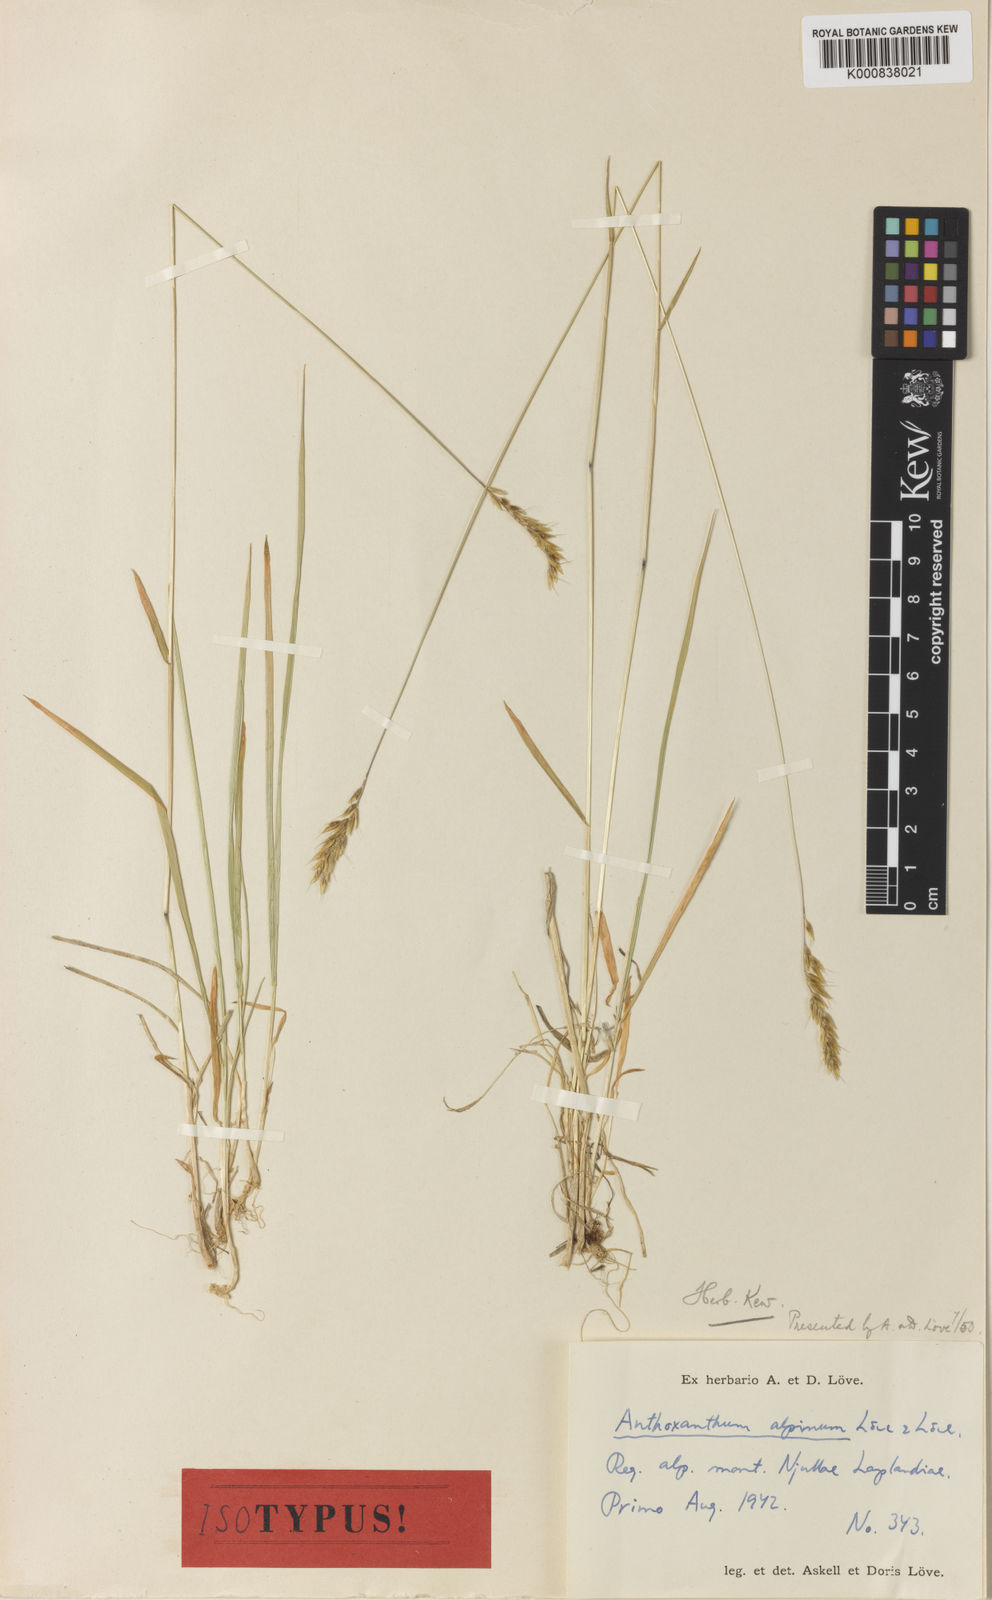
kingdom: Plantae
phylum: Tracheophyta
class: Liliopsida
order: Poales
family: Poaceae
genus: Anthoxanthum
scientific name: Anthoxanthum odoratum
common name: Sweet vernalgrass
